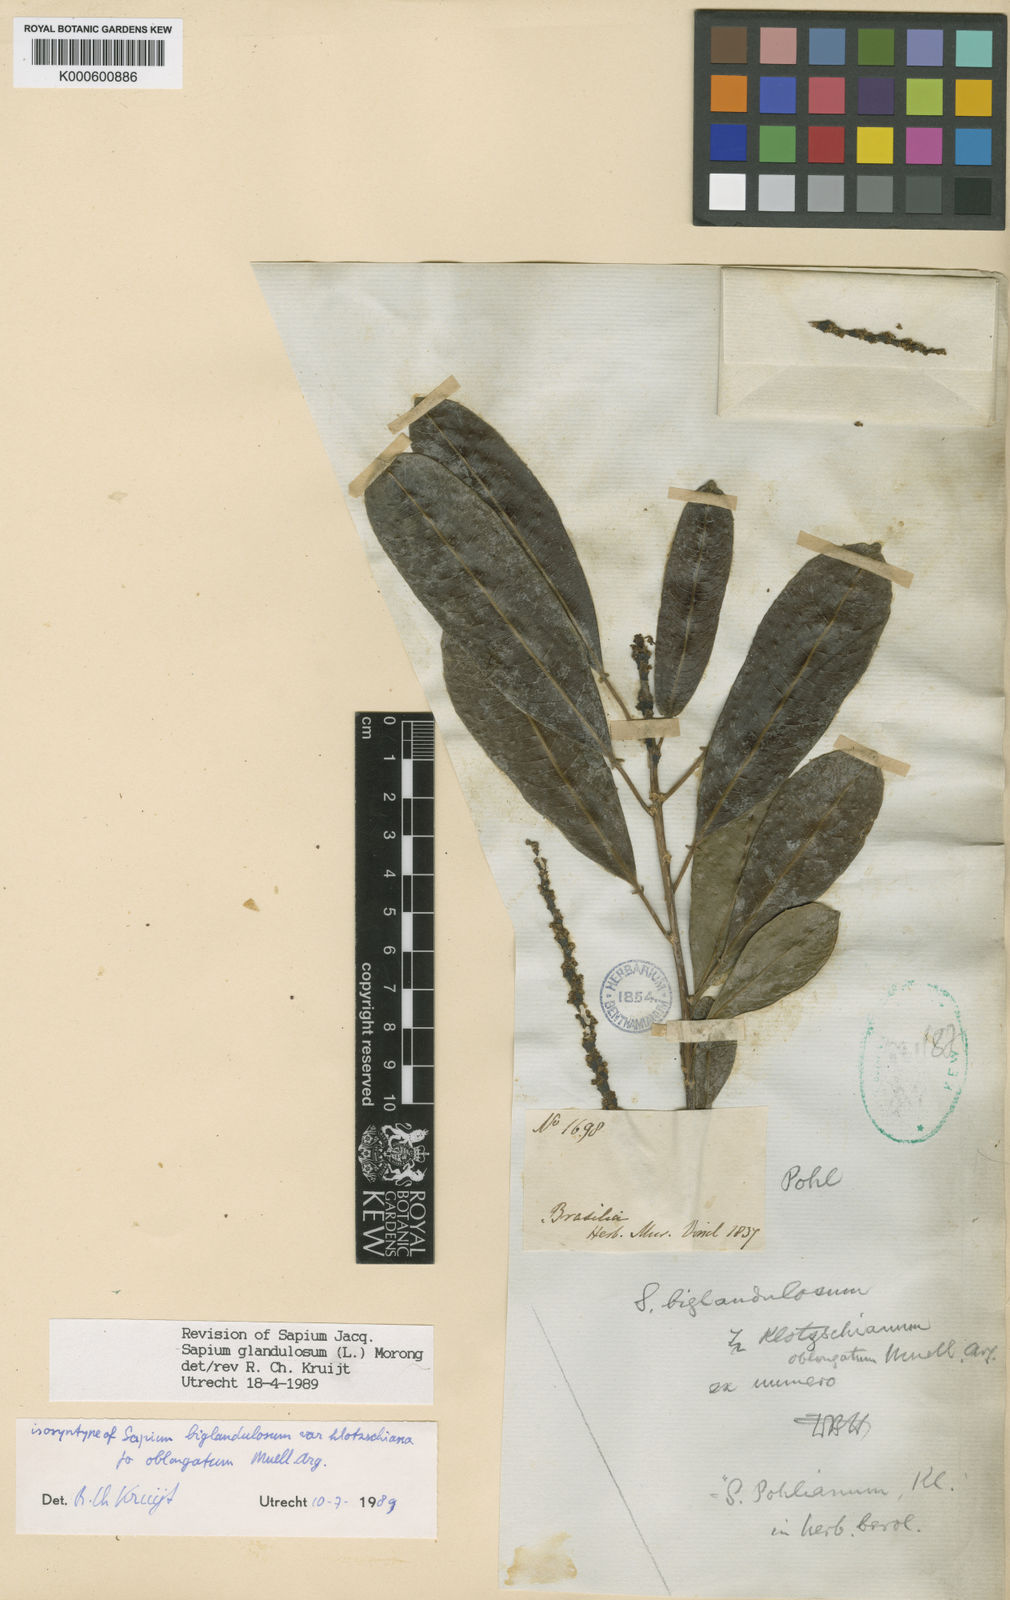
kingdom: Plantae
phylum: Tracheophyta
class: Magnoliopsida
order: Malpighiales
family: Euphorbiaceae
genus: Sapium
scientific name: Sapium glandulosum
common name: Milktree
